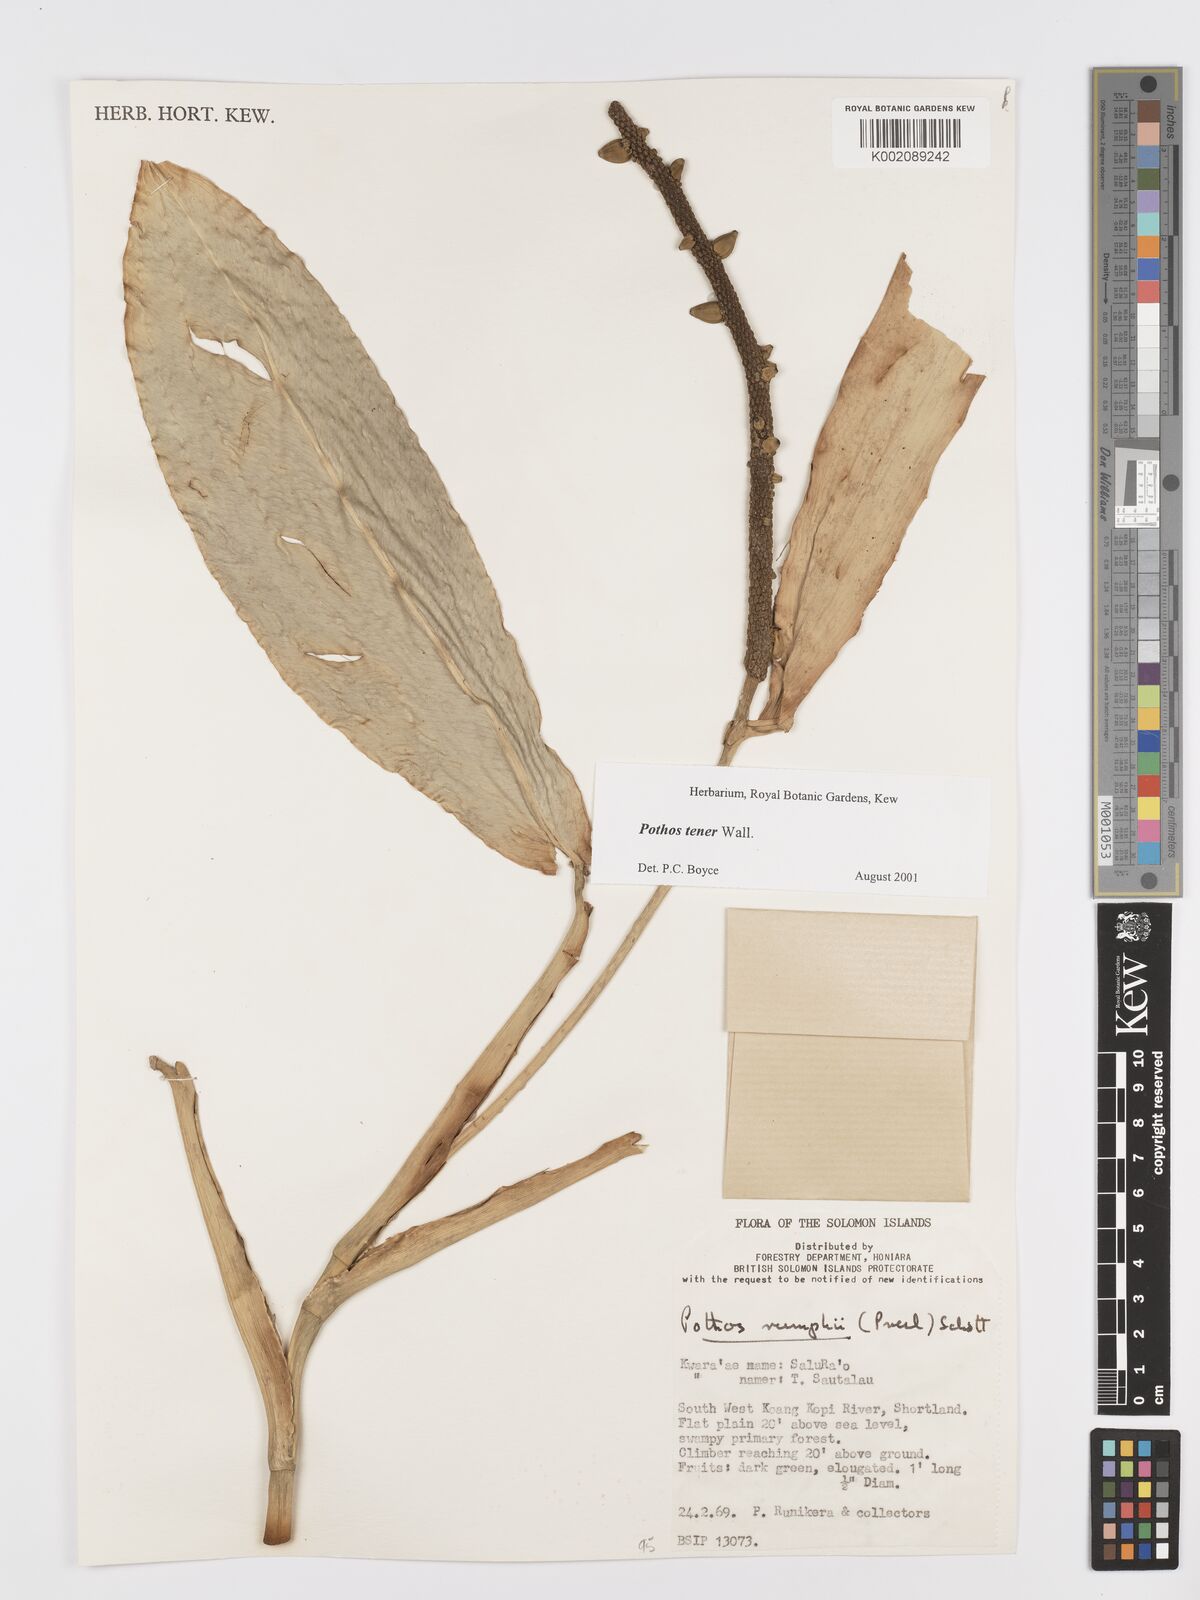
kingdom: Plantae
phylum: Tracheophyta
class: Liliopsida
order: Alismatales
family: Araceae
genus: Pothos
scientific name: Pothos tener
